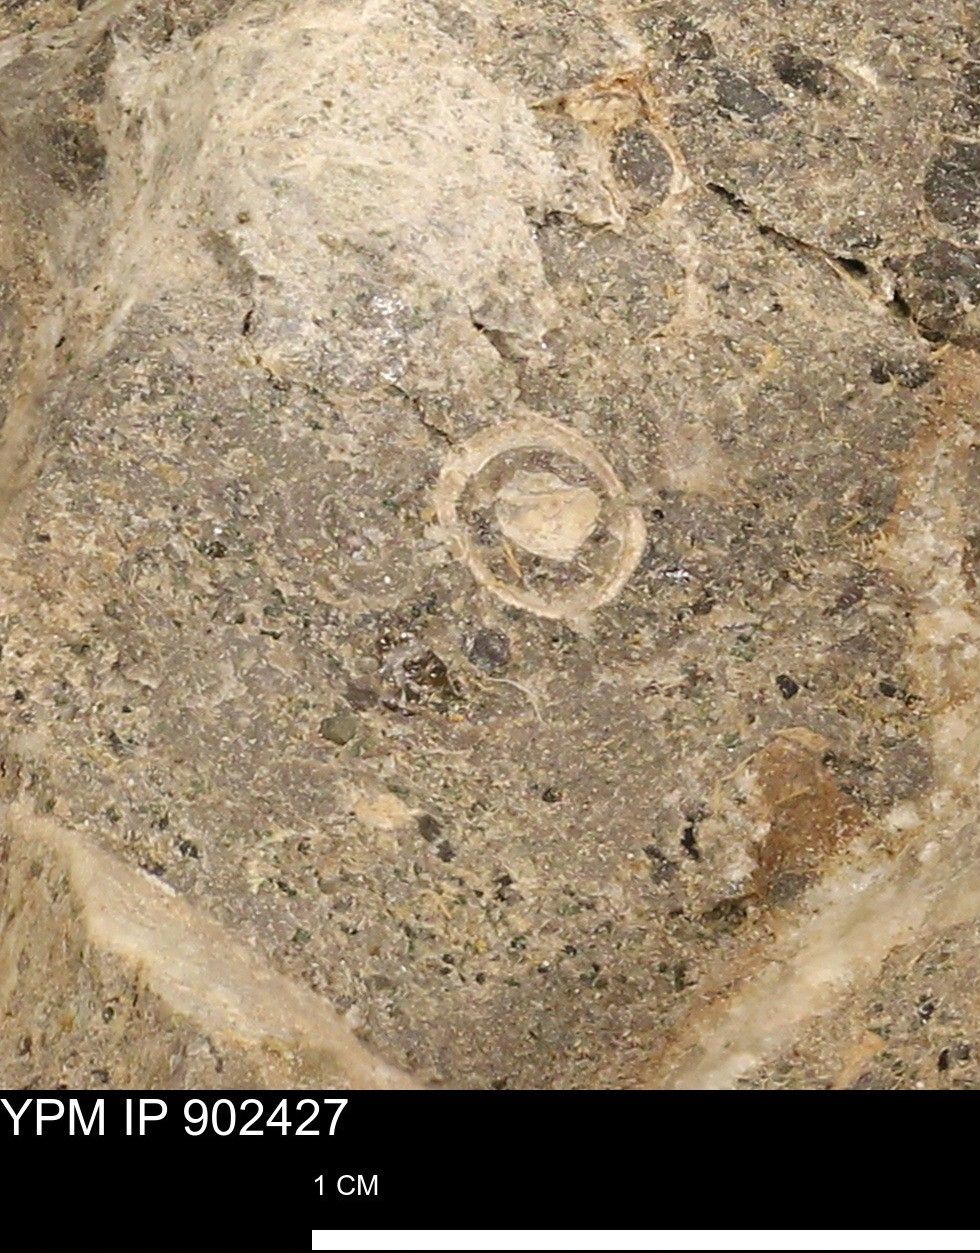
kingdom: Animalia
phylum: Mollusca
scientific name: Mollusca
